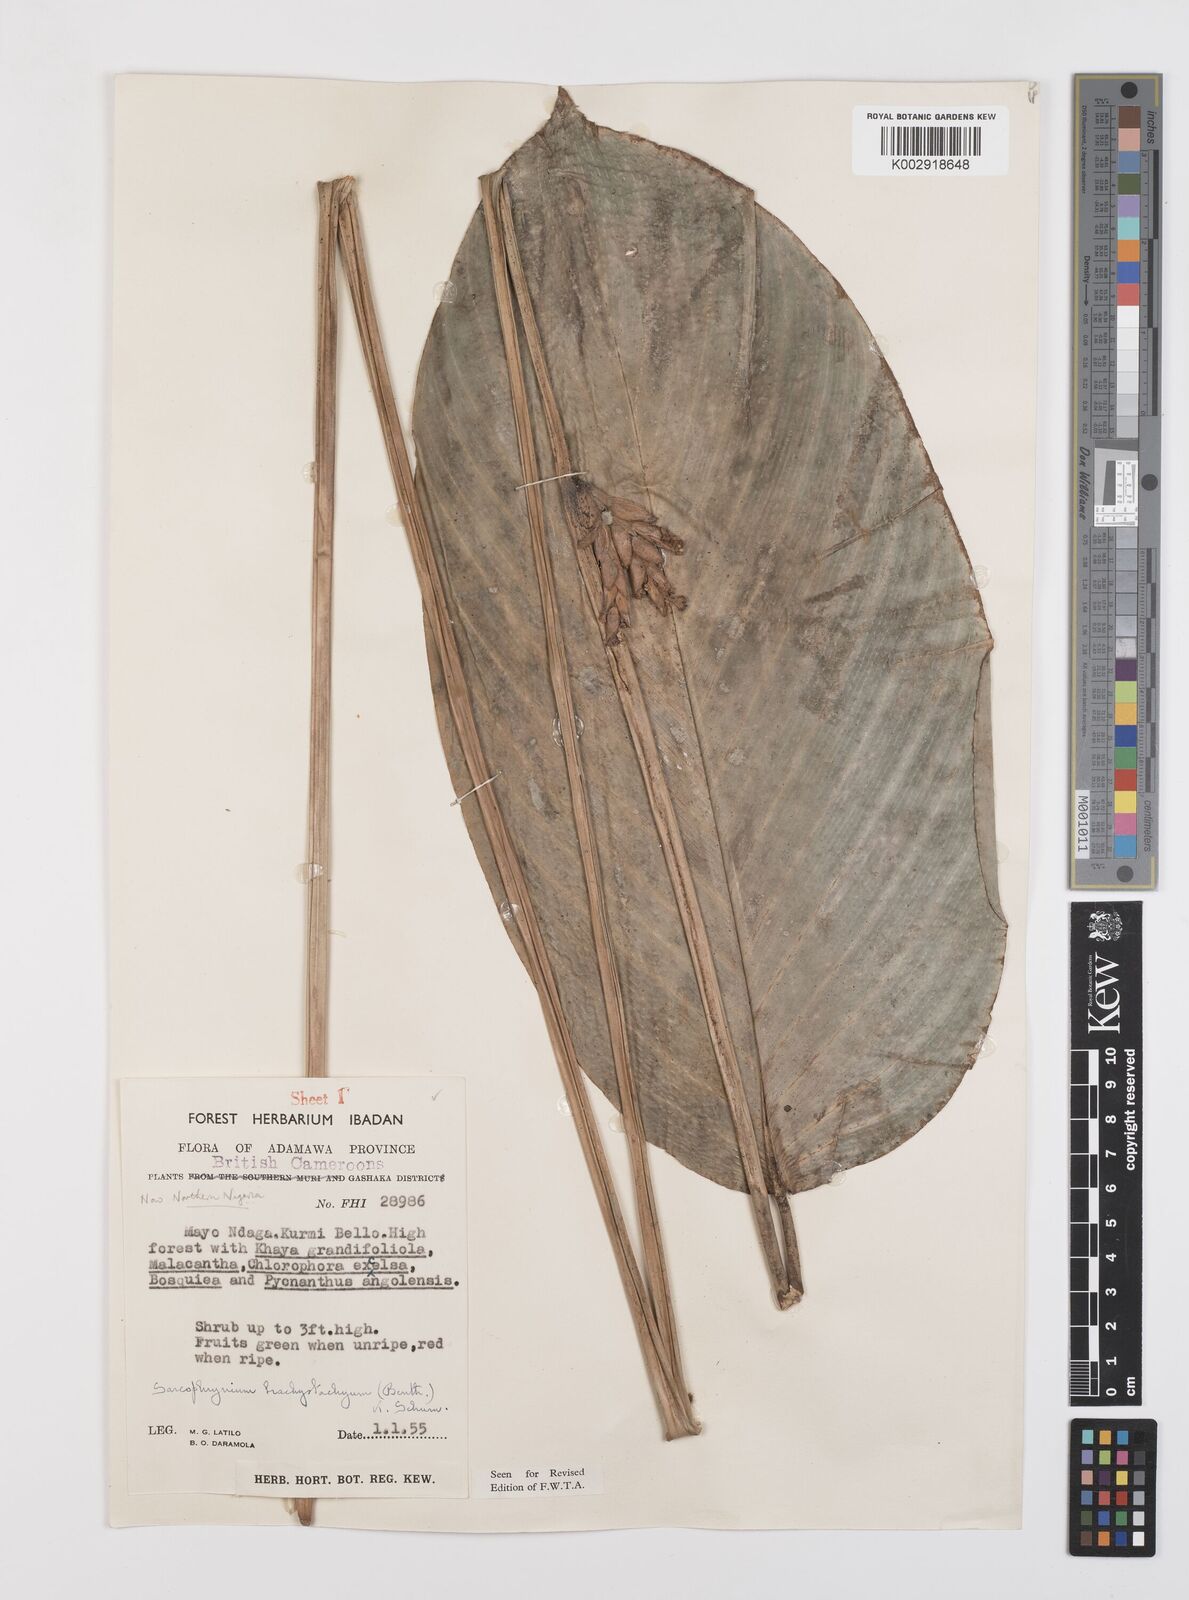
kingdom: Plantae
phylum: Tracheophyta
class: Liliopsida
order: Zingiberales
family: Marantaceae
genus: Sarcophrynium
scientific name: Sarcophrynium brachystachyum
